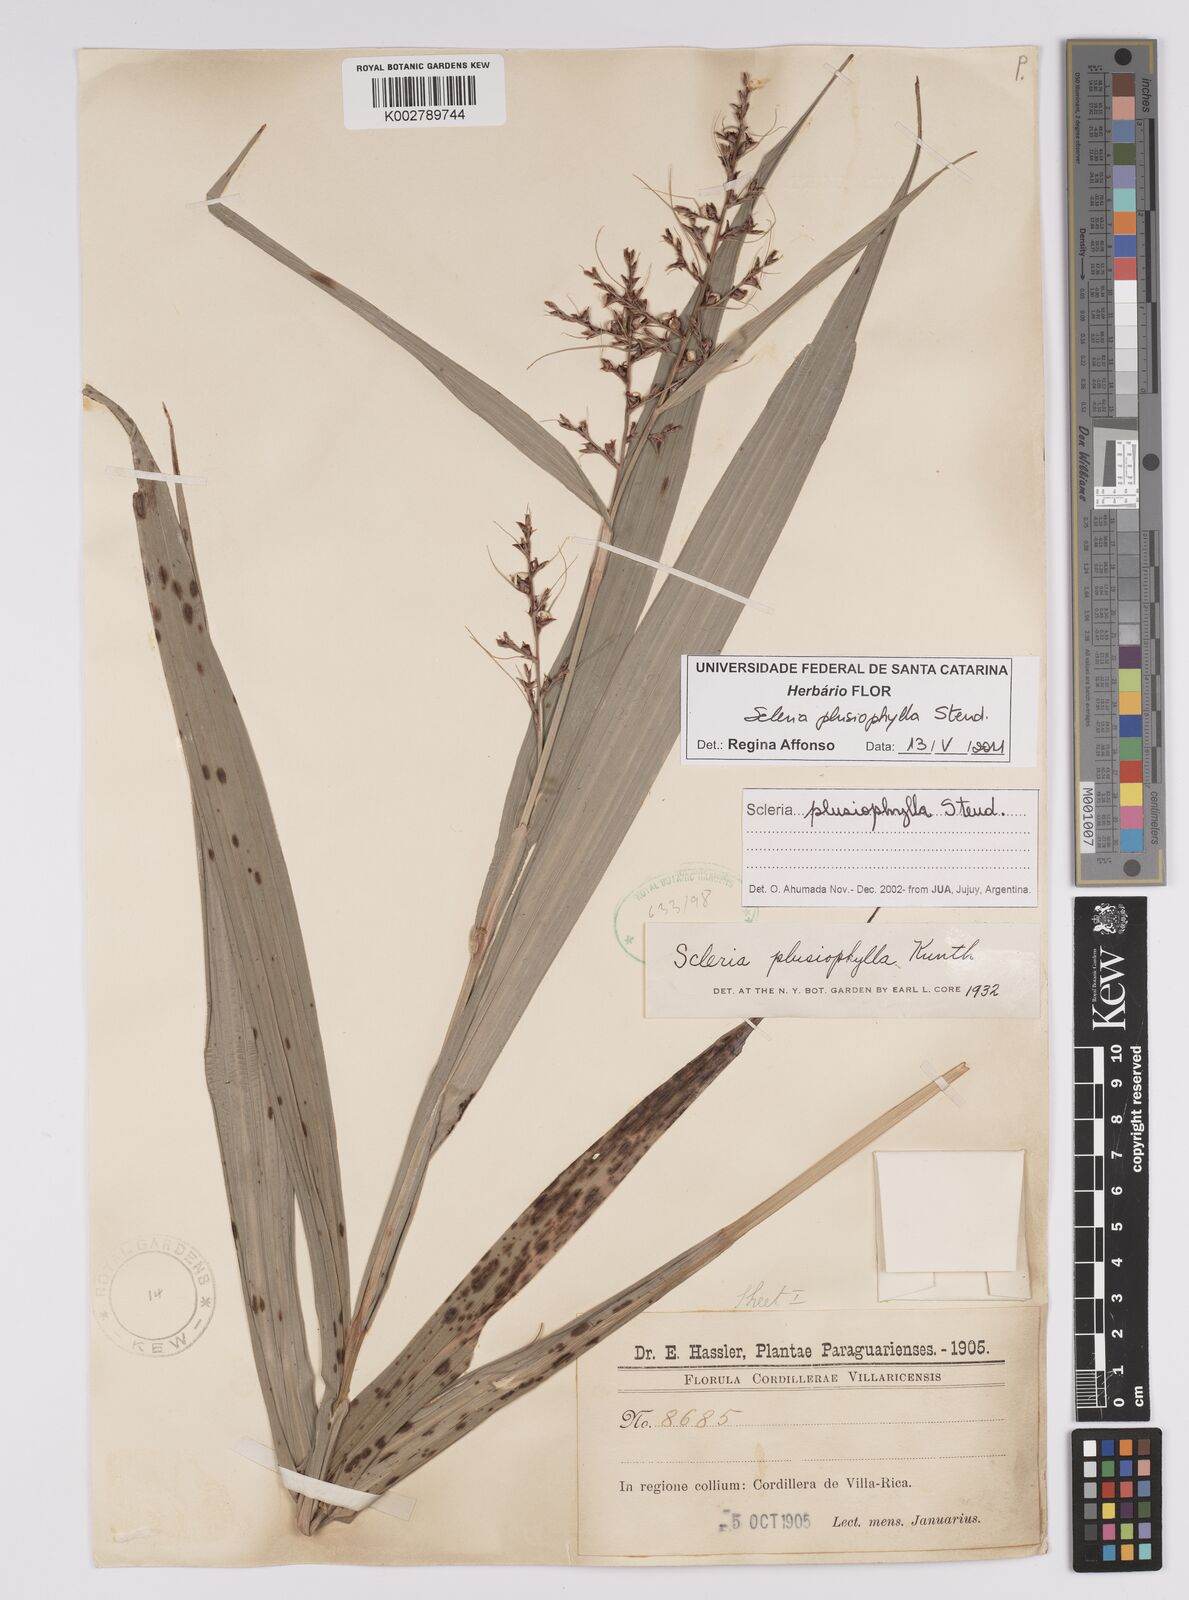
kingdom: Plantae
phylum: Tracheophyta
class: Liliopsida
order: Poales
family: Cyperaceae
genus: Scleria
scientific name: Scleria plusiophylla
